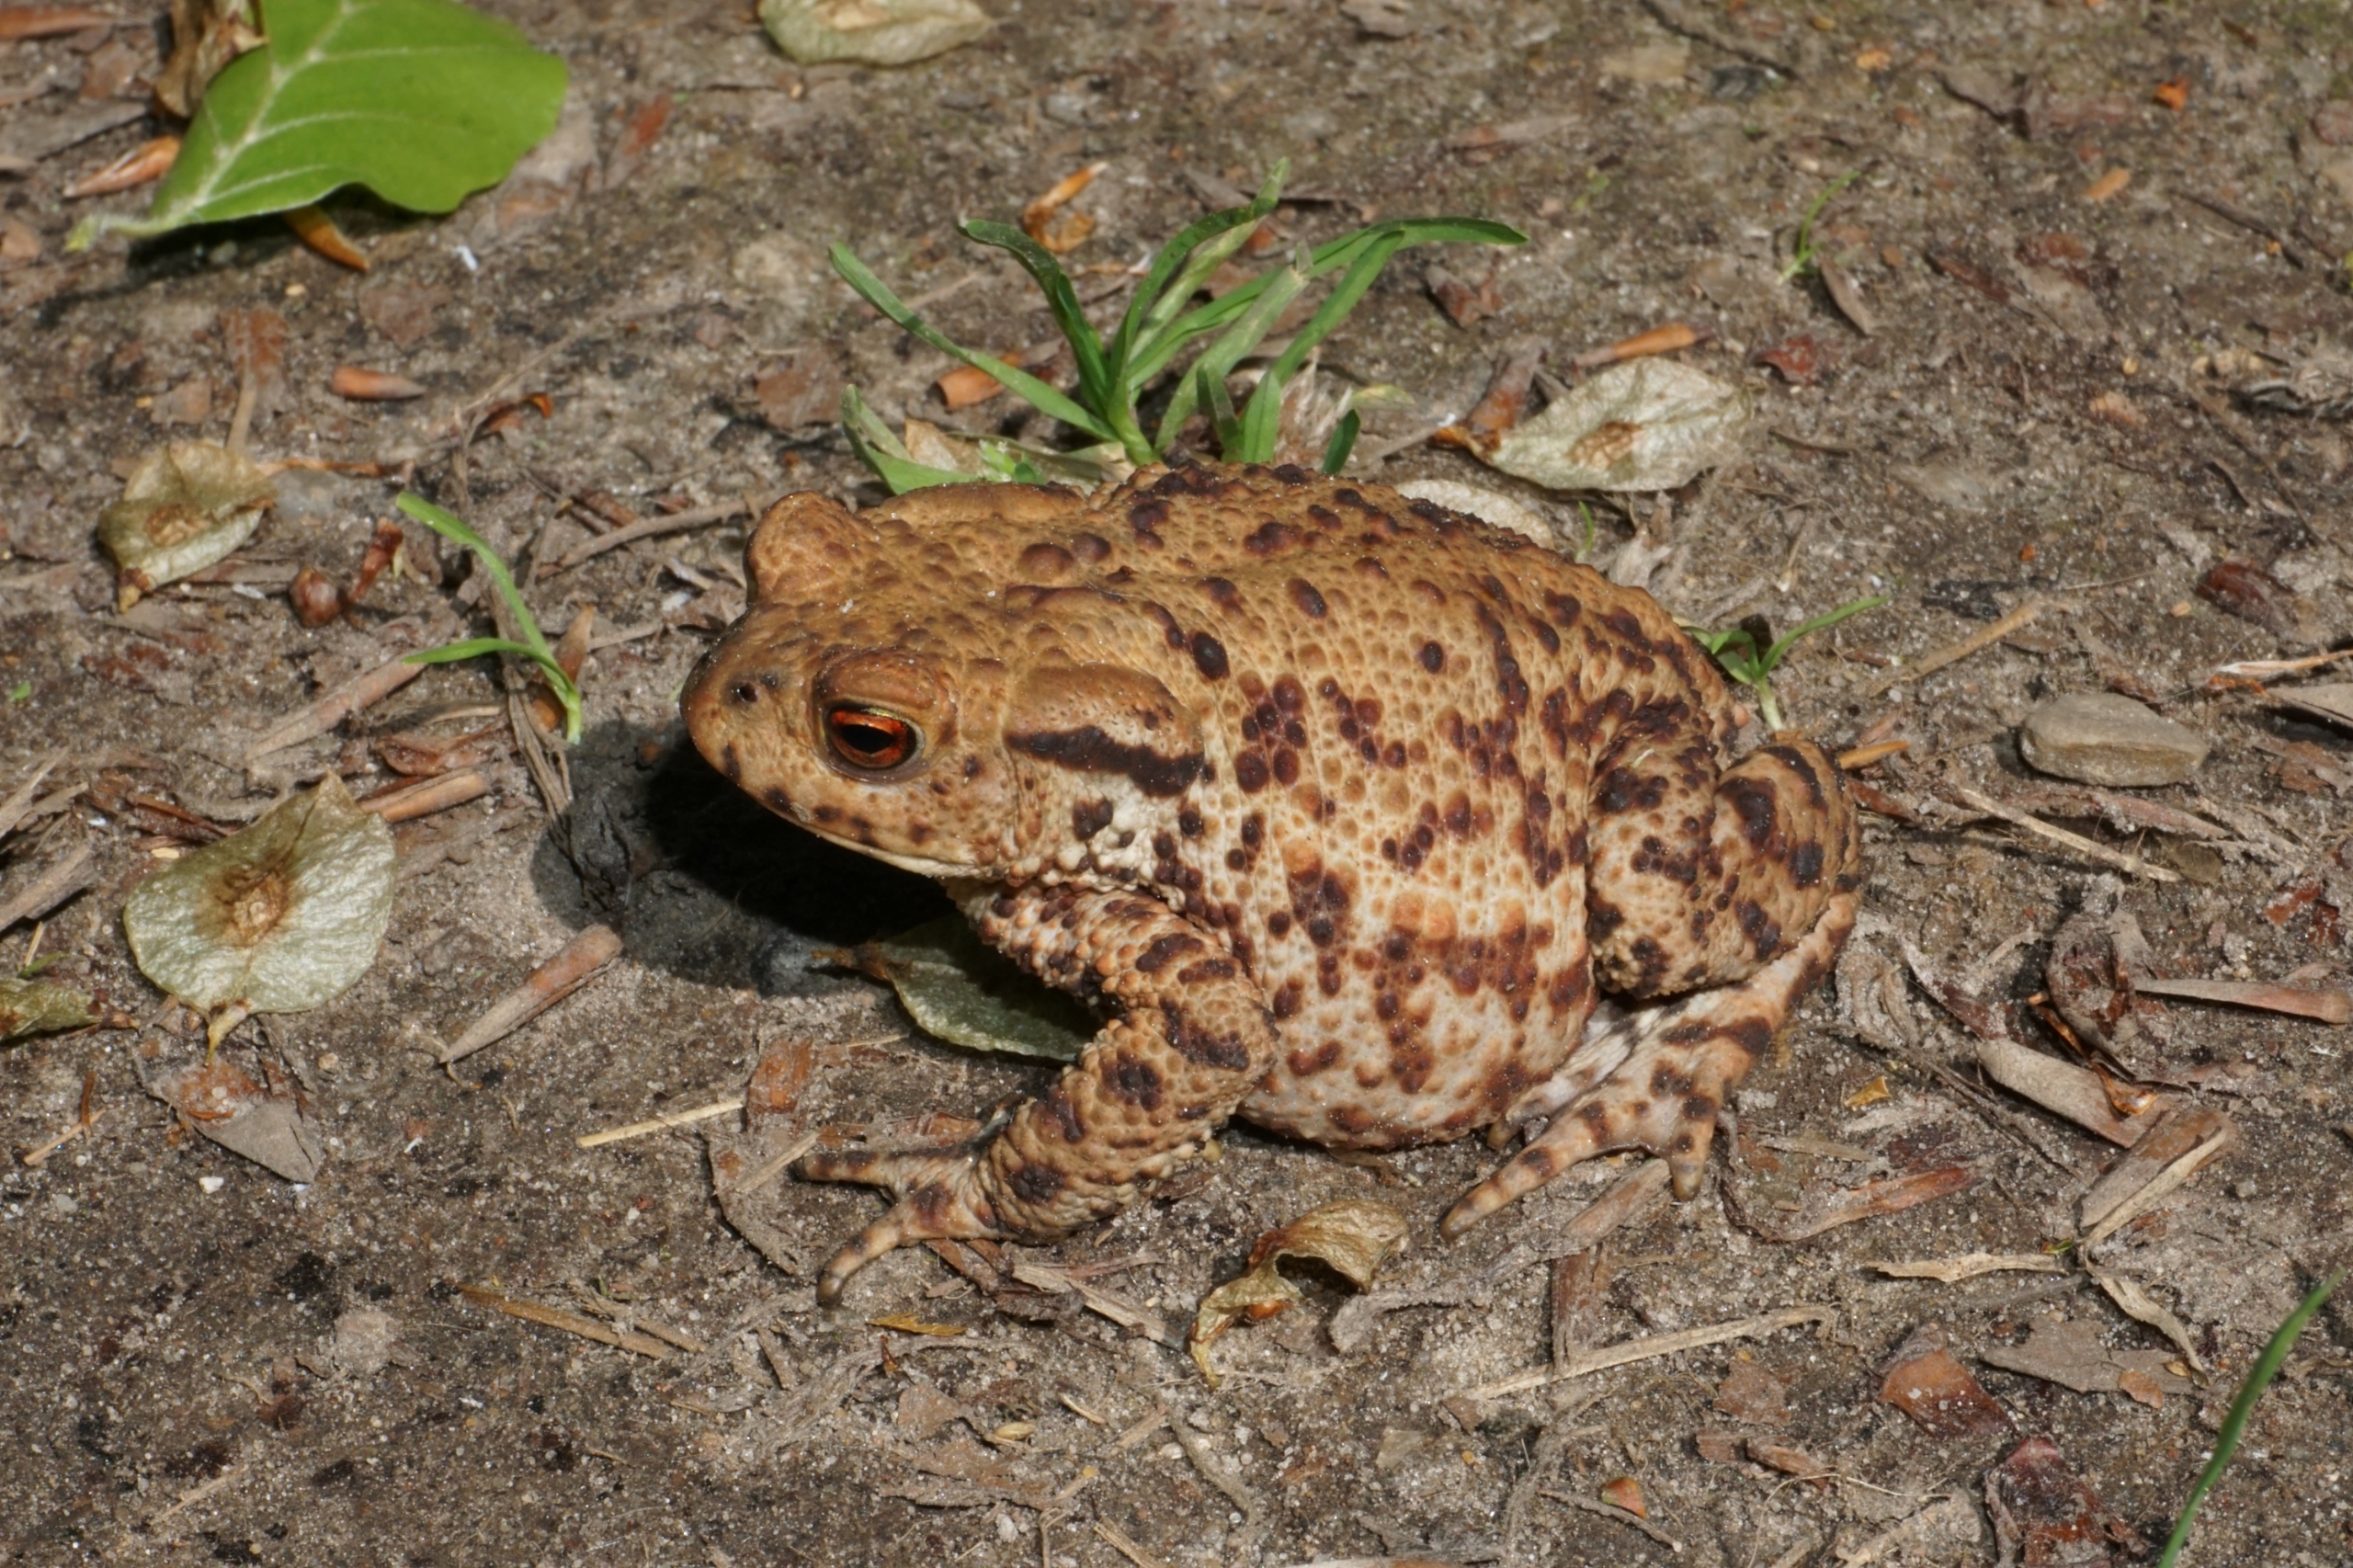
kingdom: Animalia
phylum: Chordata
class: Amphibia
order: Anura
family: Bufonidae
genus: Bufo
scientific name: Bufo bufo
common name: Skrubtudse
